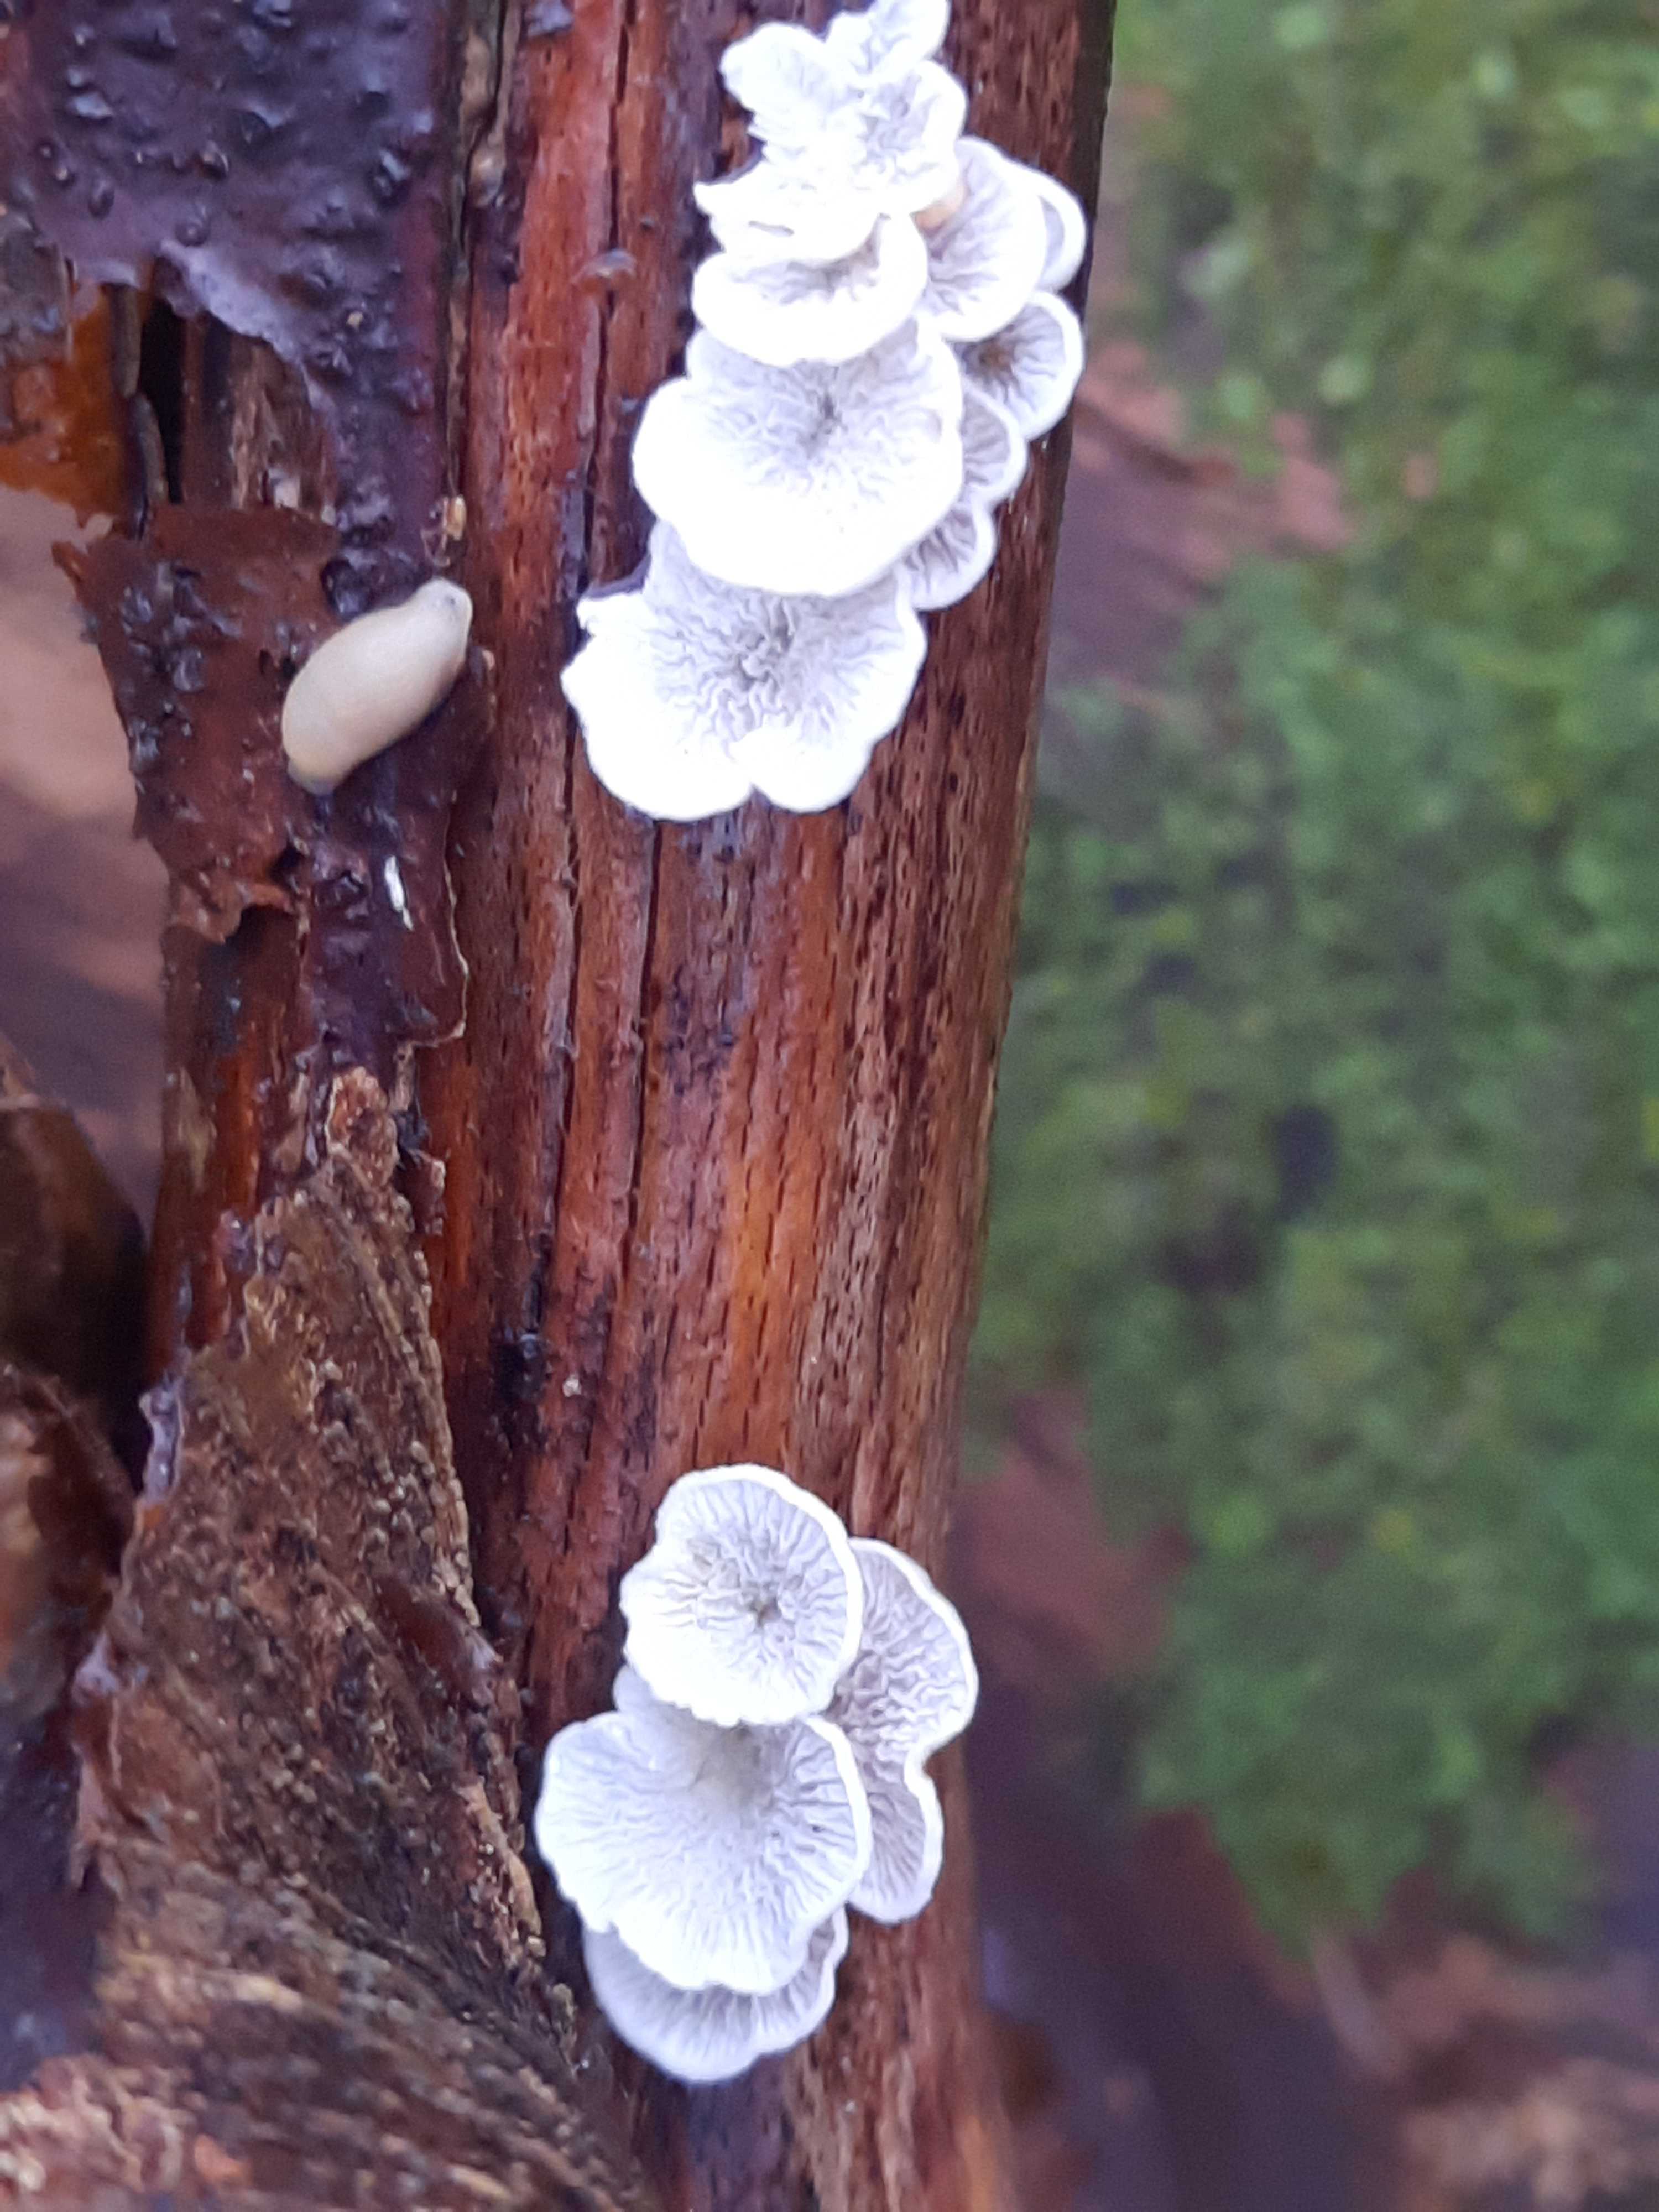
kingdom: Fungi
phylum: Basidiomycota
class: Agaricomycetes
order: Amylocorticiales
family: Amylocorticiaceae
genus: Plicaturopsis
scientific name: Plicaturopsis crispa
